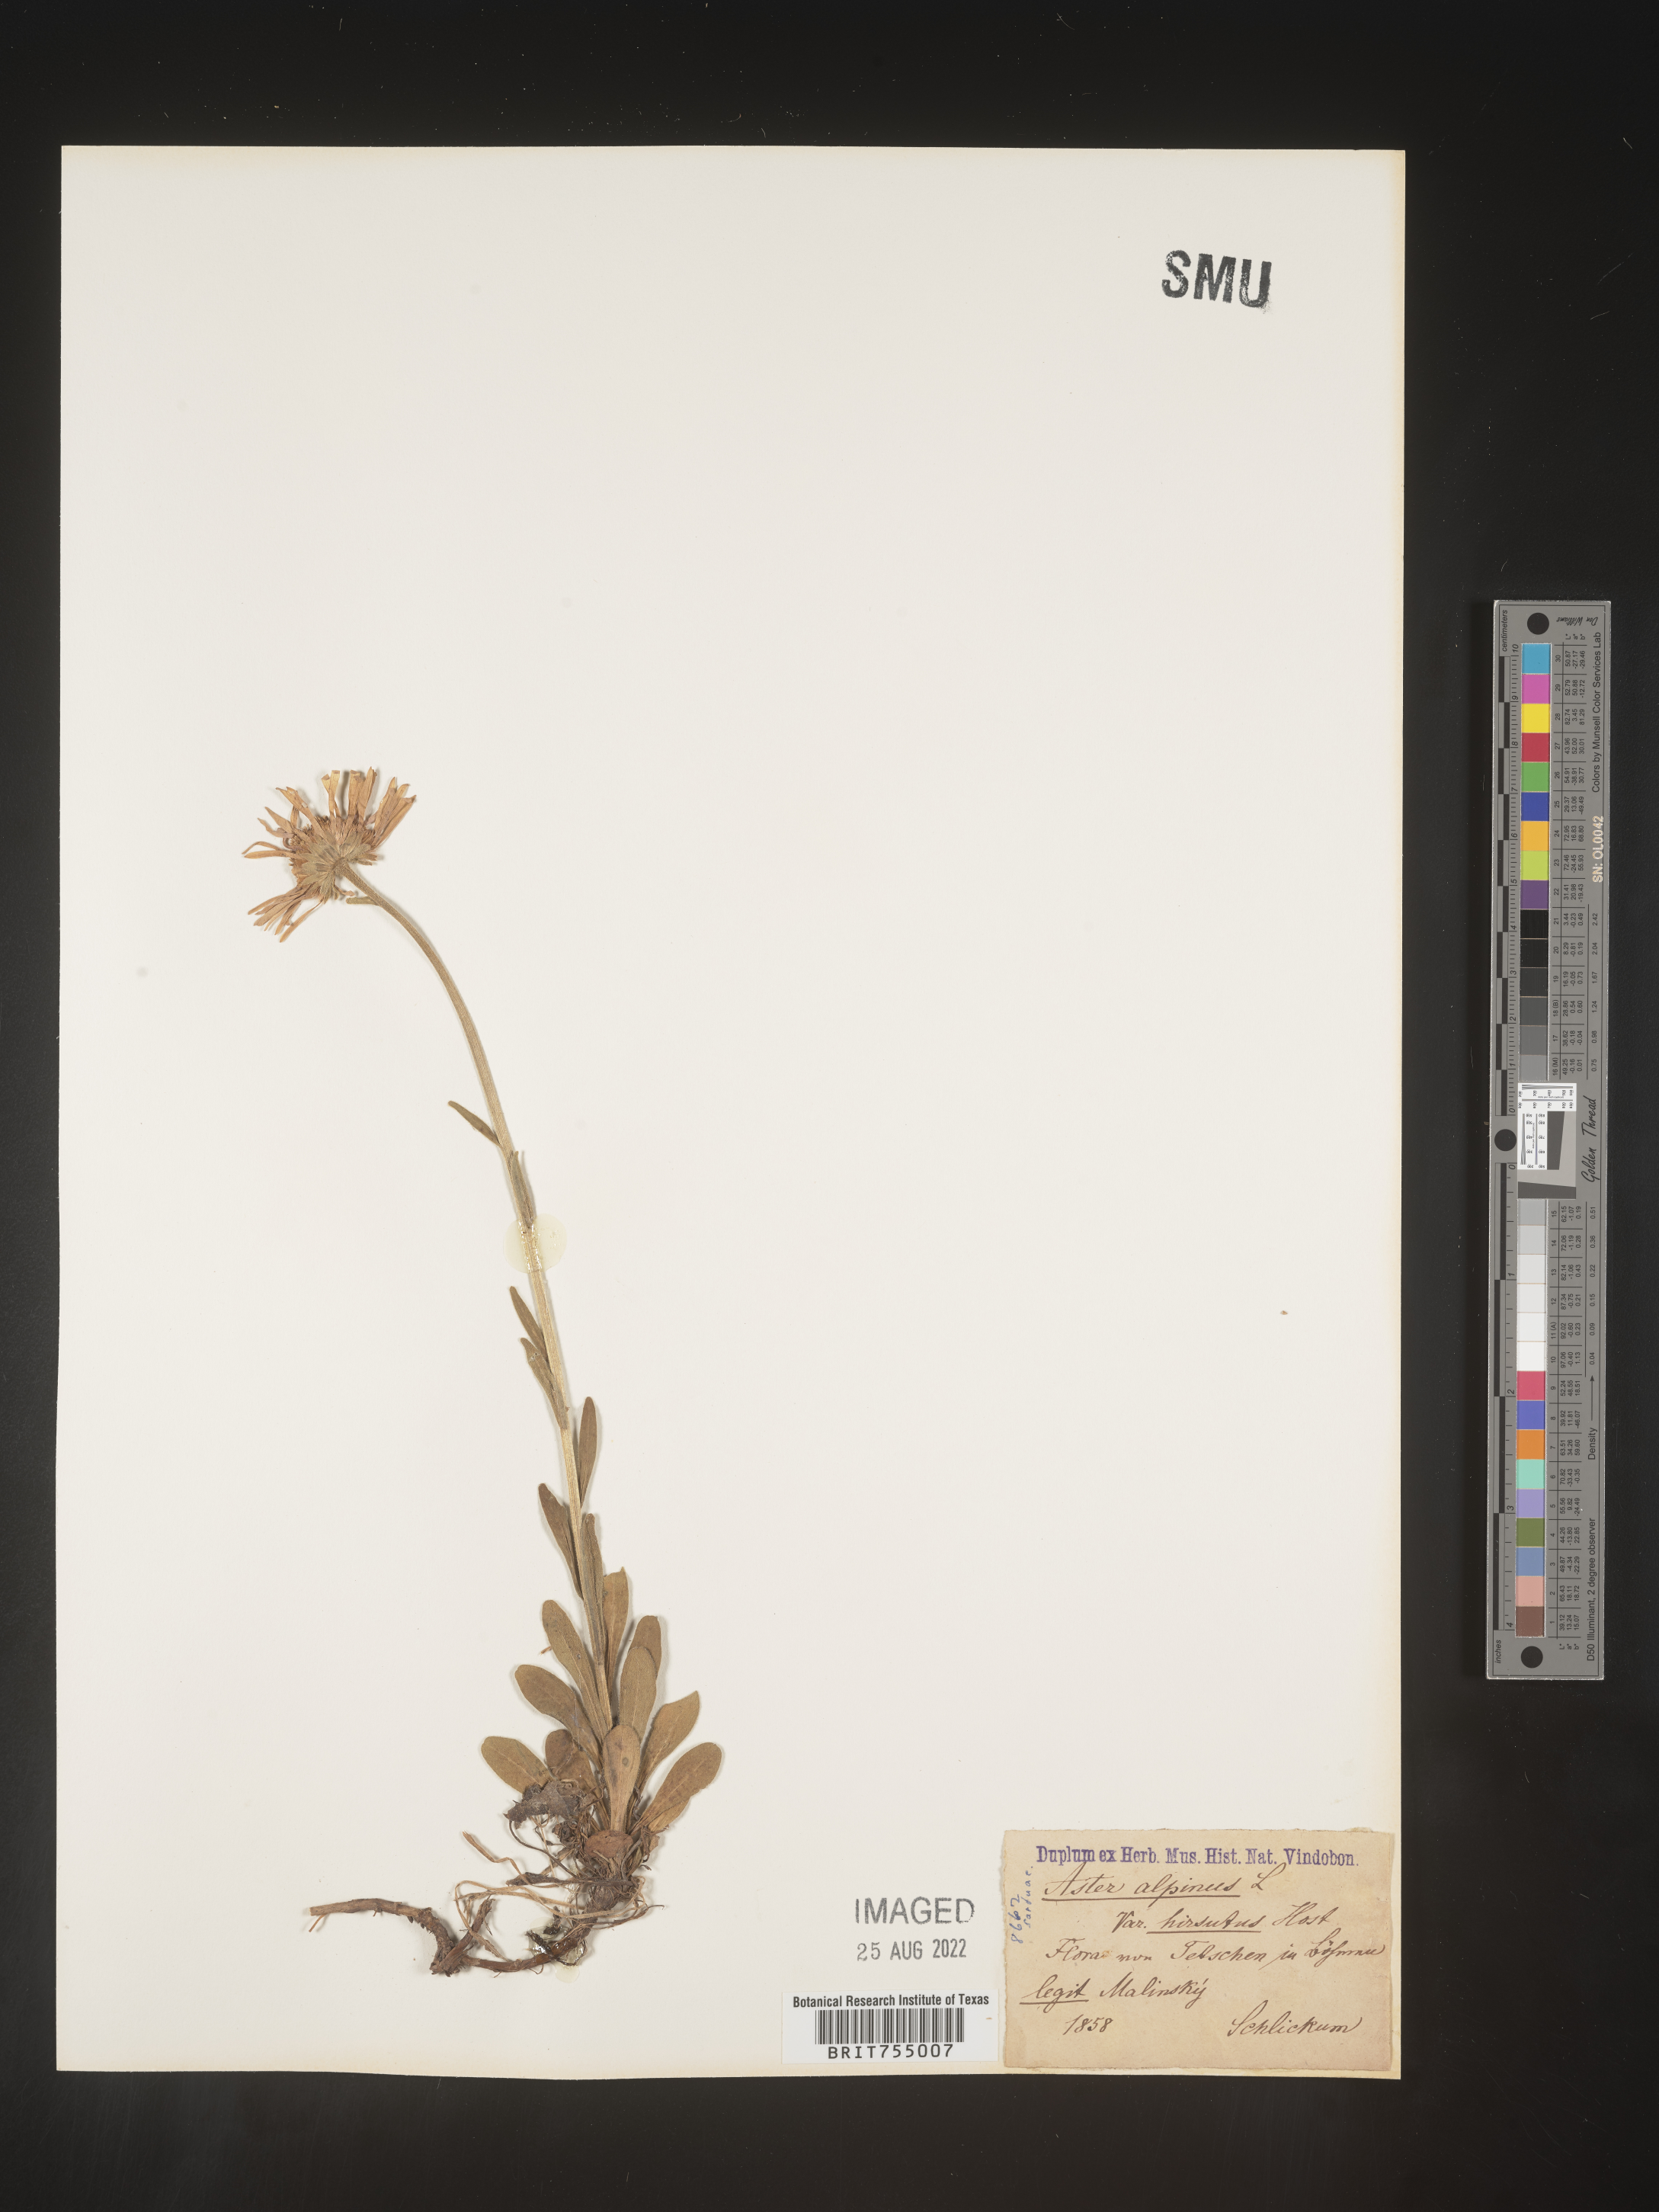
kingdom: Plantae
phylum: Tracheophyta
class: Magnoliopsida
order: Asterales
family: Asteraceae
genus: Symphyotrichum
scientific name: Symphyotrichum
